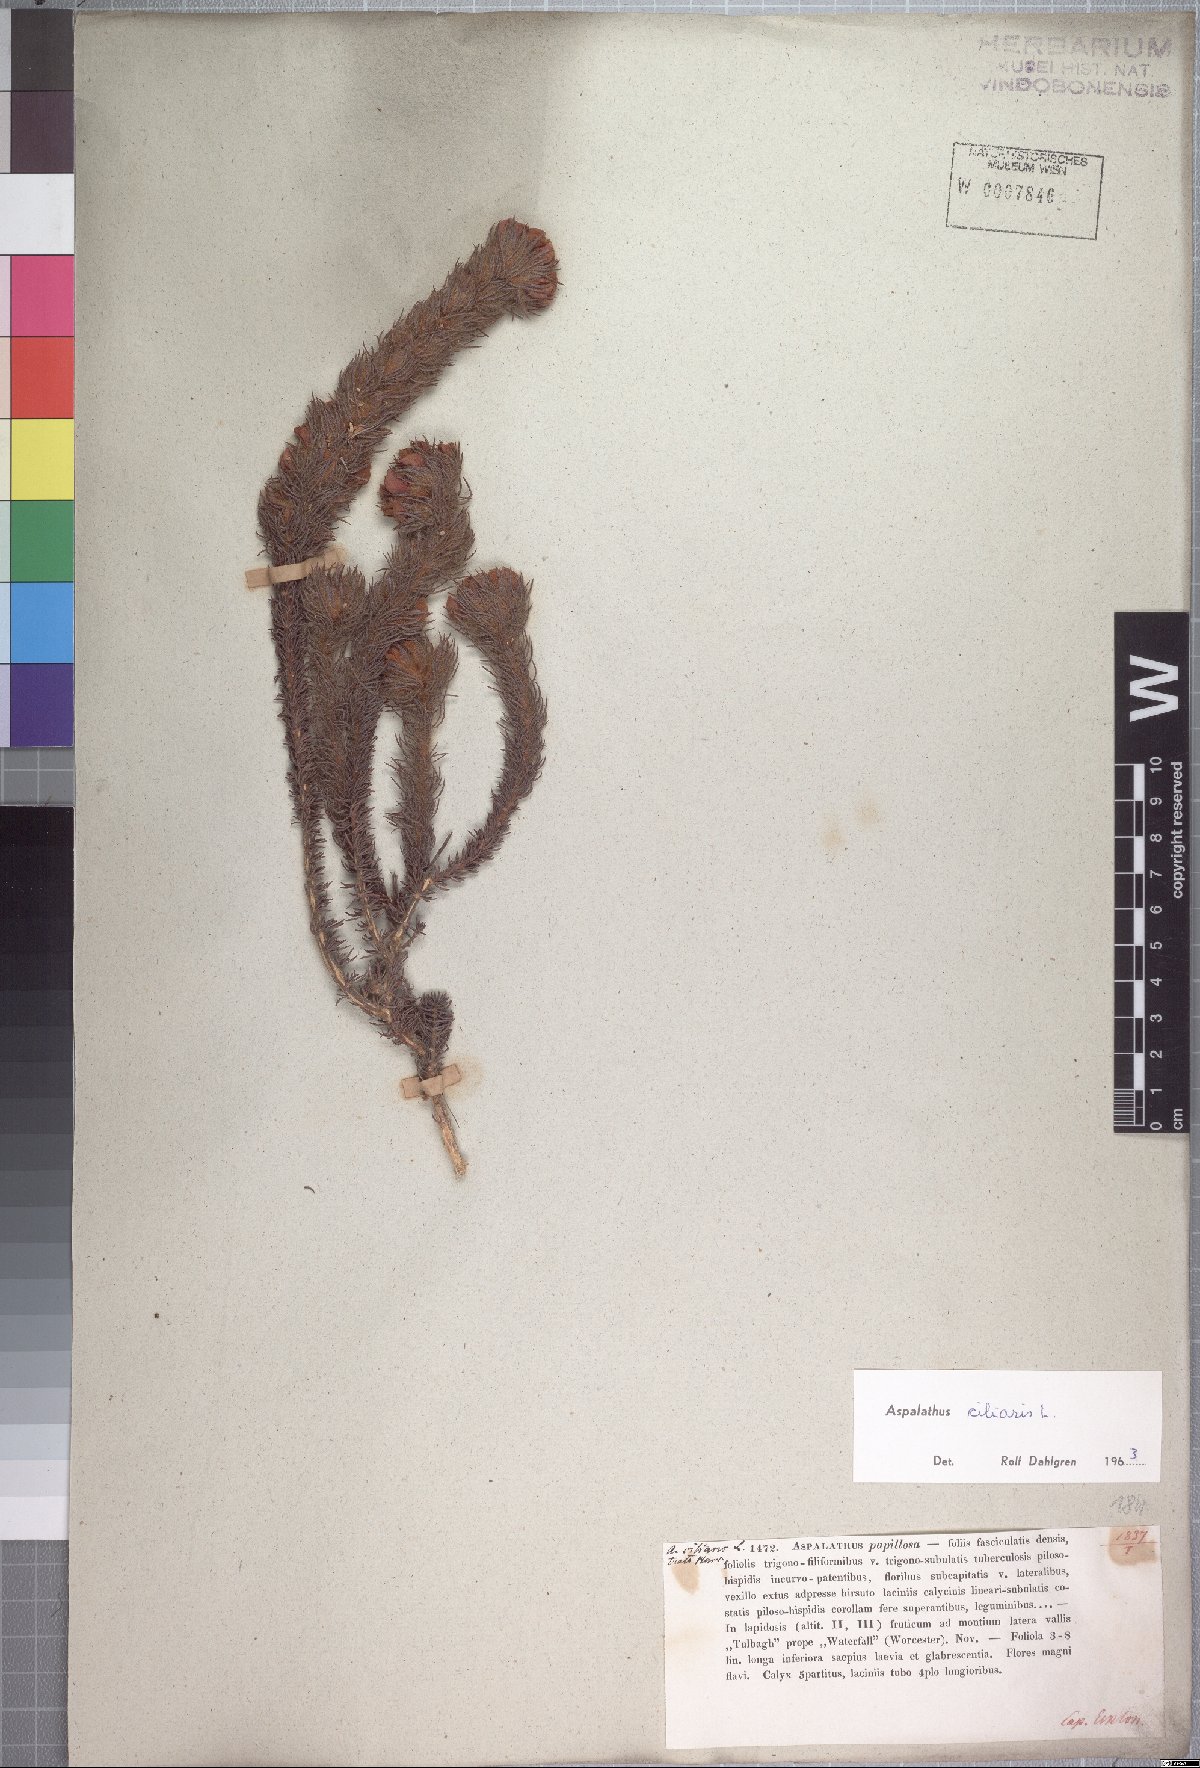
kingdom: Plantae
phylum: Tracheophyta
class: Magnoliopsida
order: Fabales
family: Fabaceae
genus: Aspalathus
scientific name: Aspalathus ciliaris
